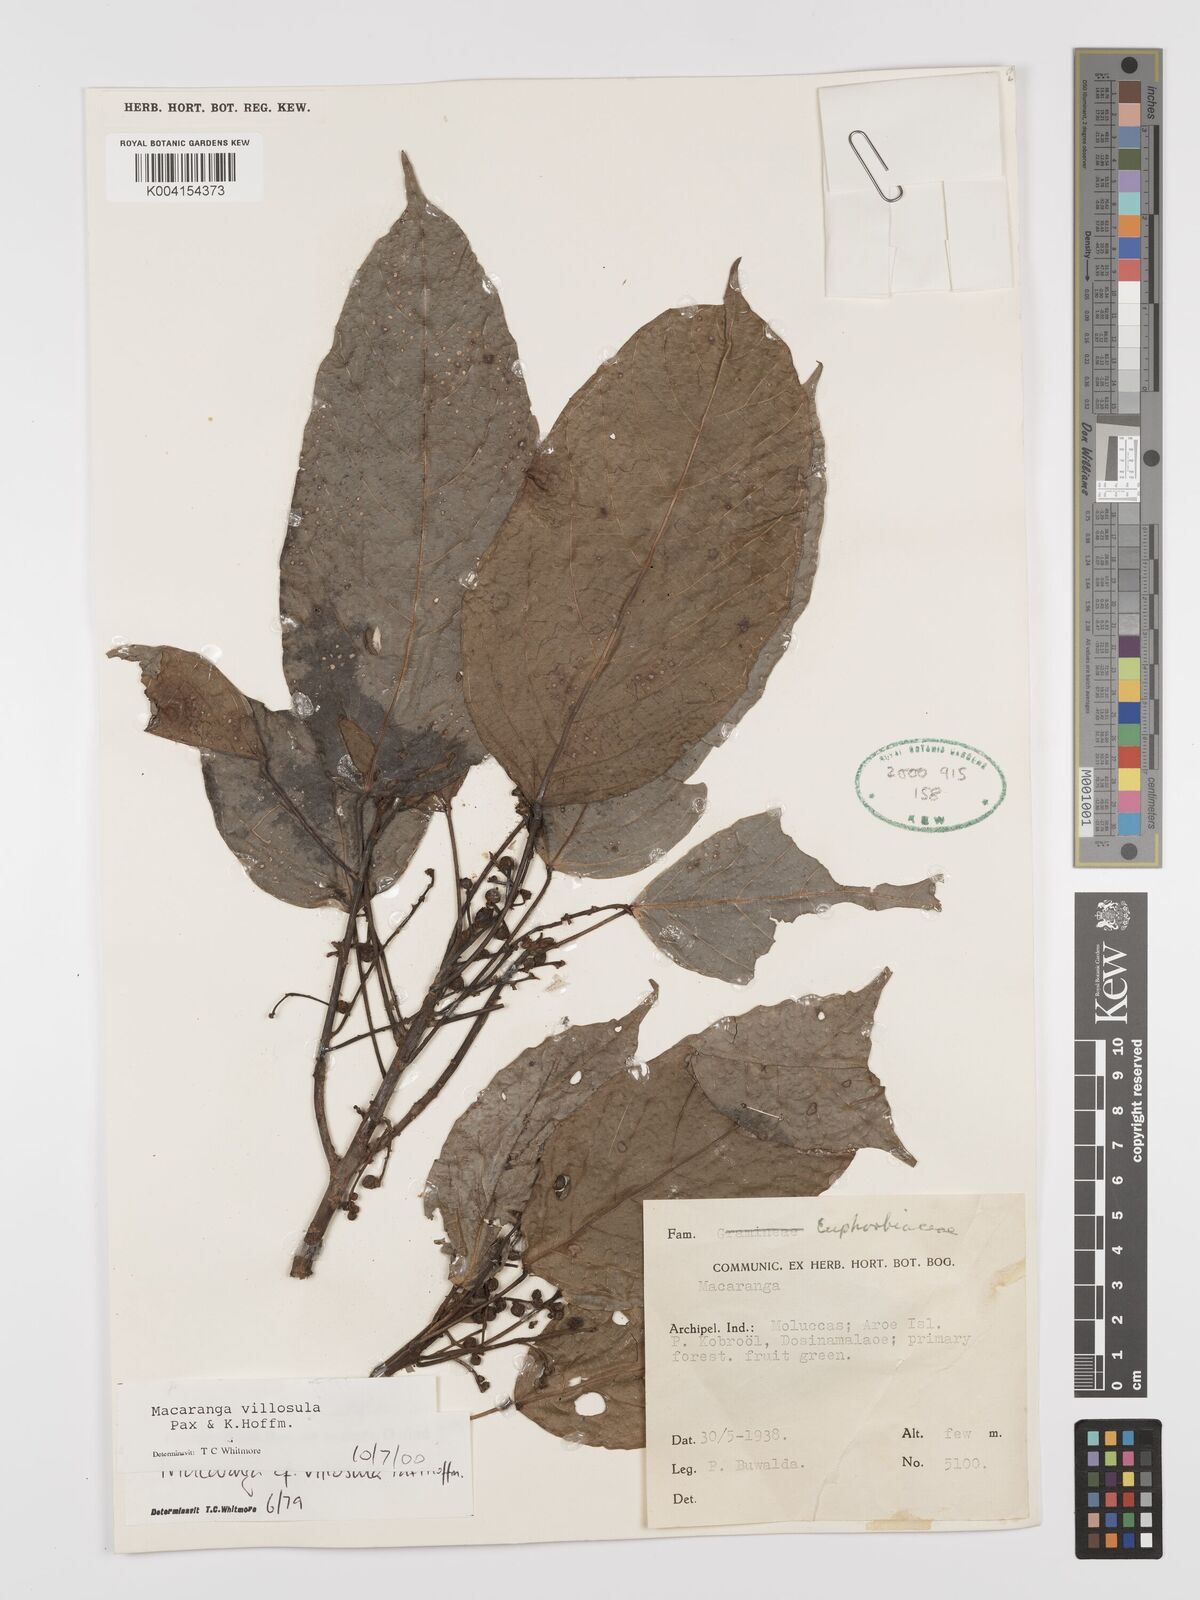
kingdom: Plantae
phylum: Tracheophyta
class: Magnoliopsida
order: Malpighiales
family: Euphorbiaceae
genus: Macaranga
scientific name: Macaranga villosula
